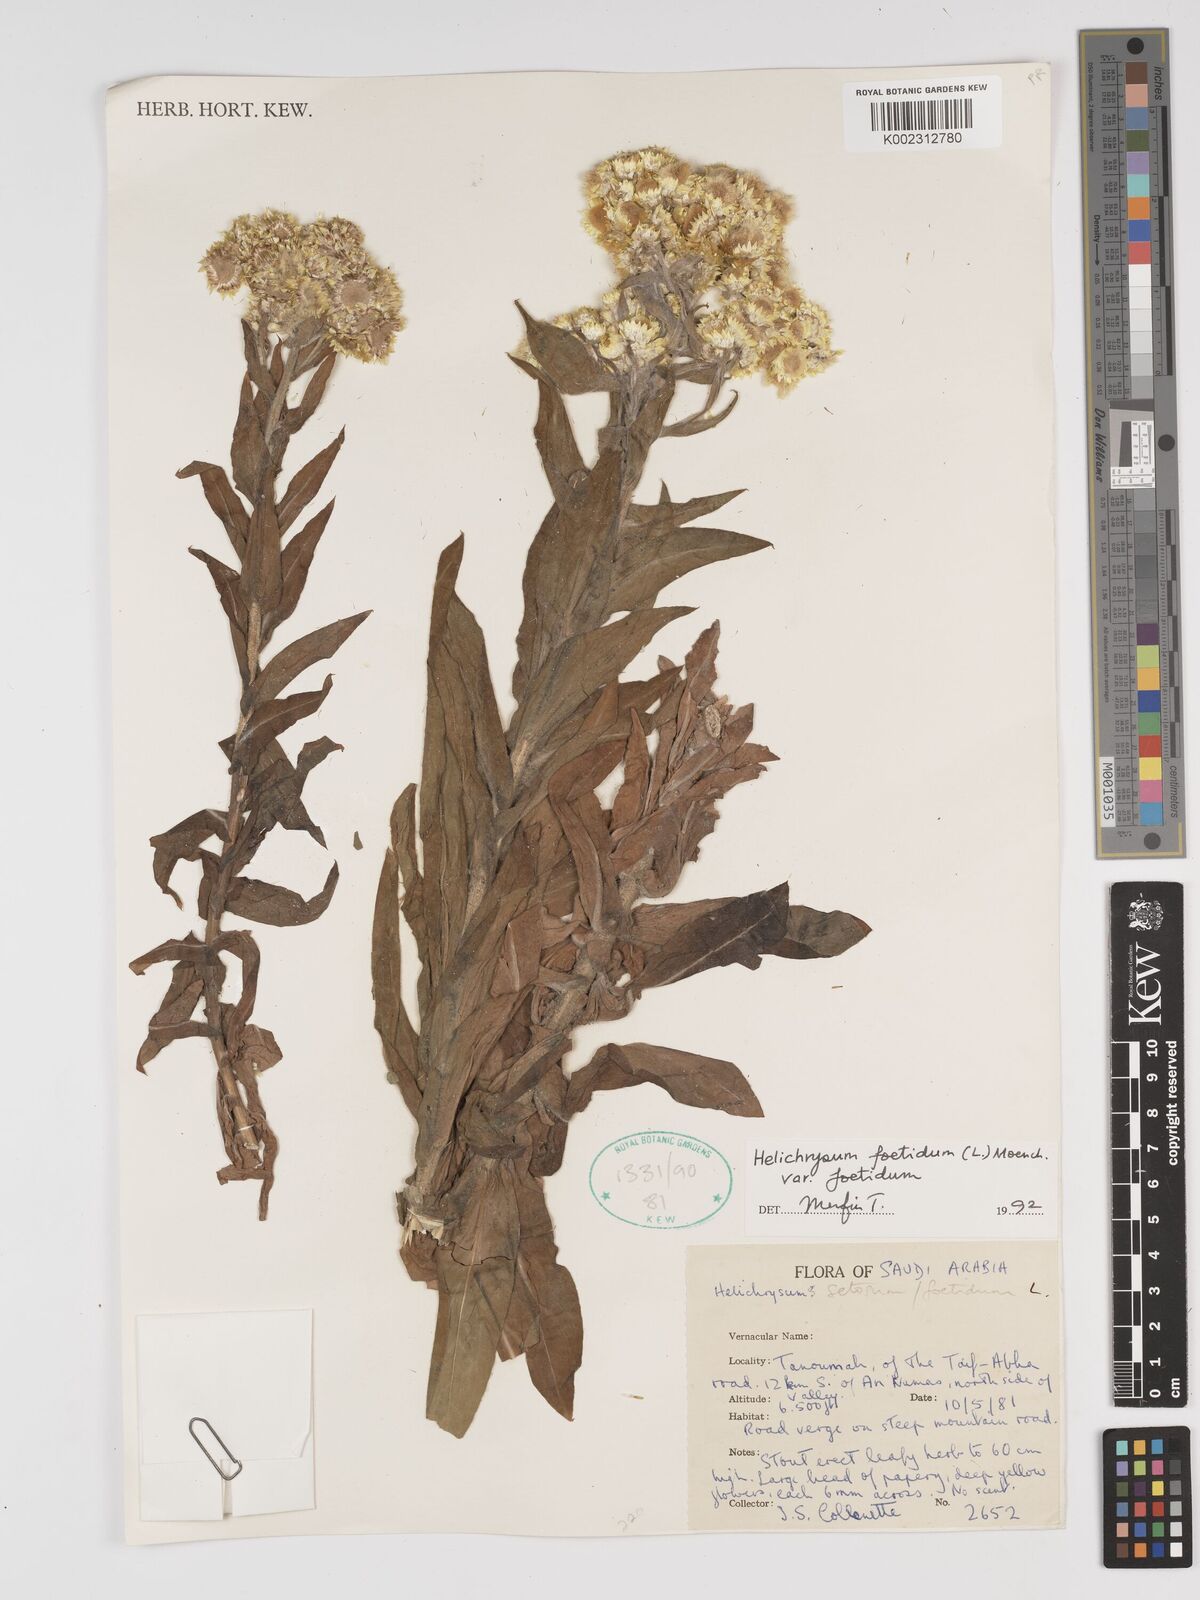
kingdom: Plantae
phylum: Tracheophyta
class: Magnoliopsida
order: Asterales
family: Asteraceae
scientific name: Asteraceae
